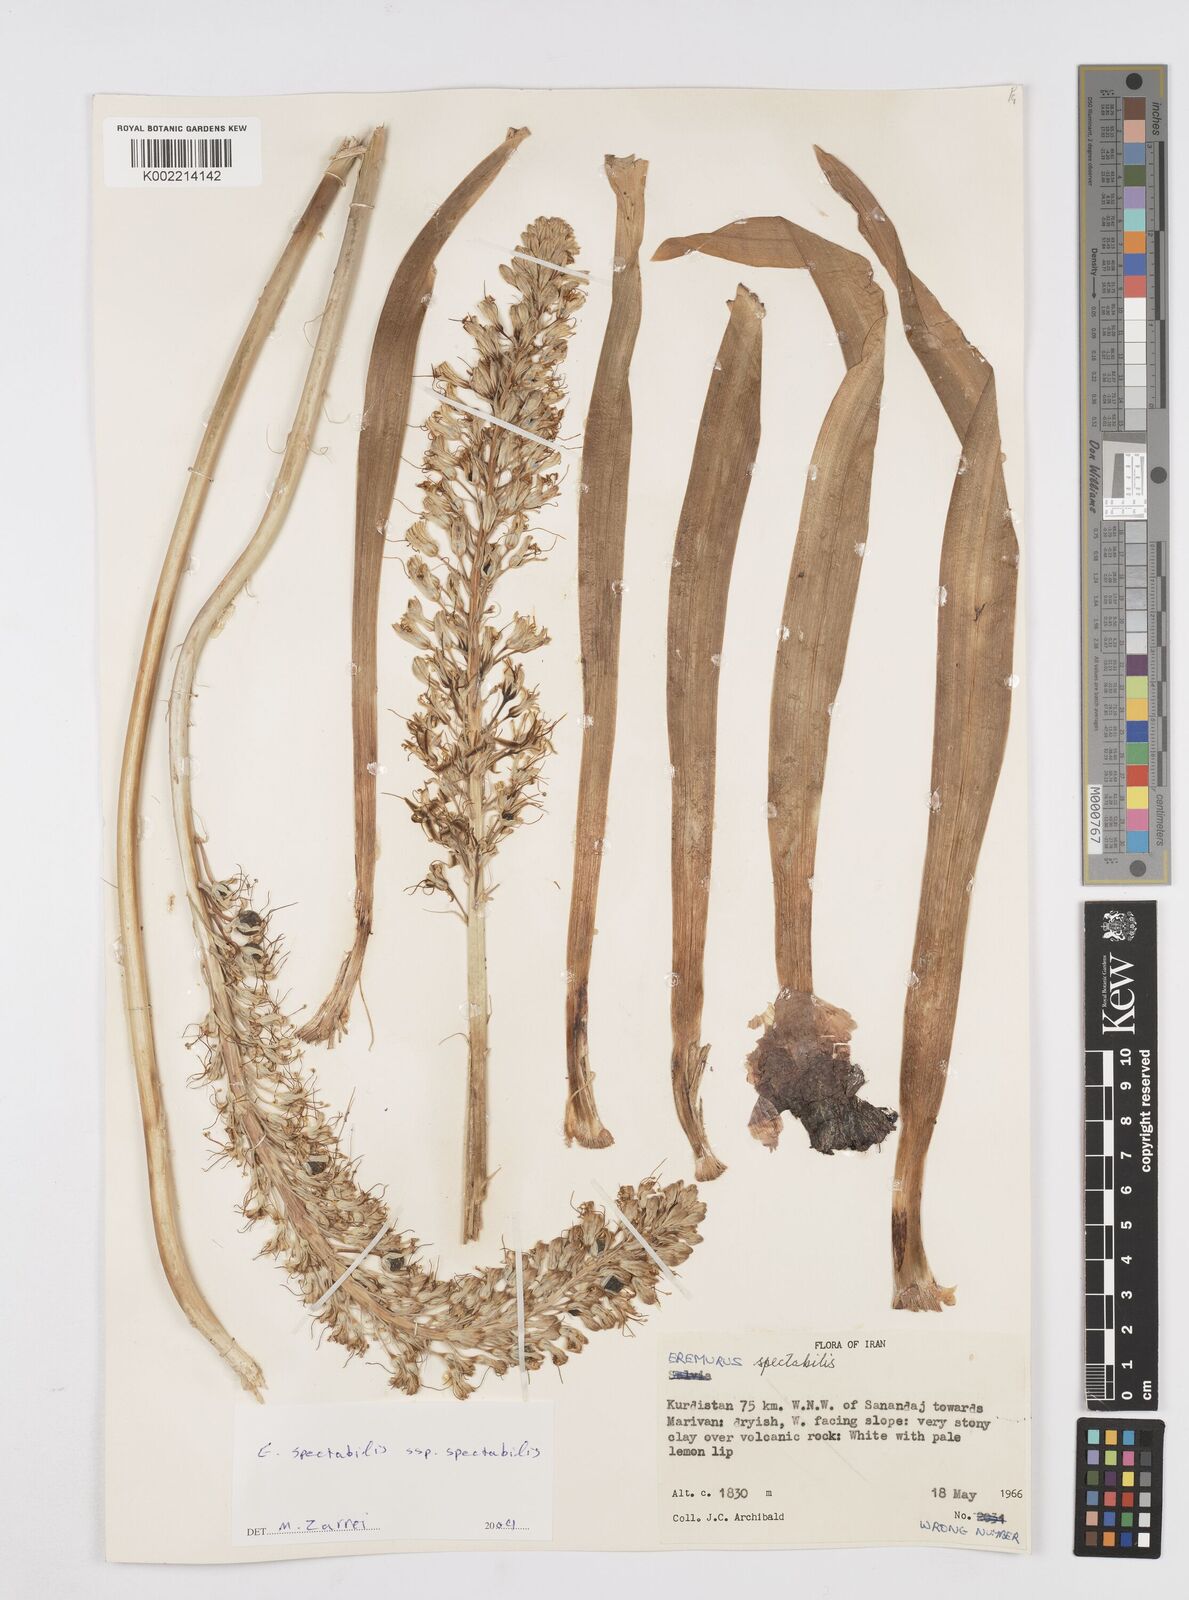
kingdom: Plantae
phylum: Tracheophyta
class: Liliopsida
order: Asparagales
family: Asphodelaceae
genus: Eremurus
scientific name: Eremurus spectabilis
